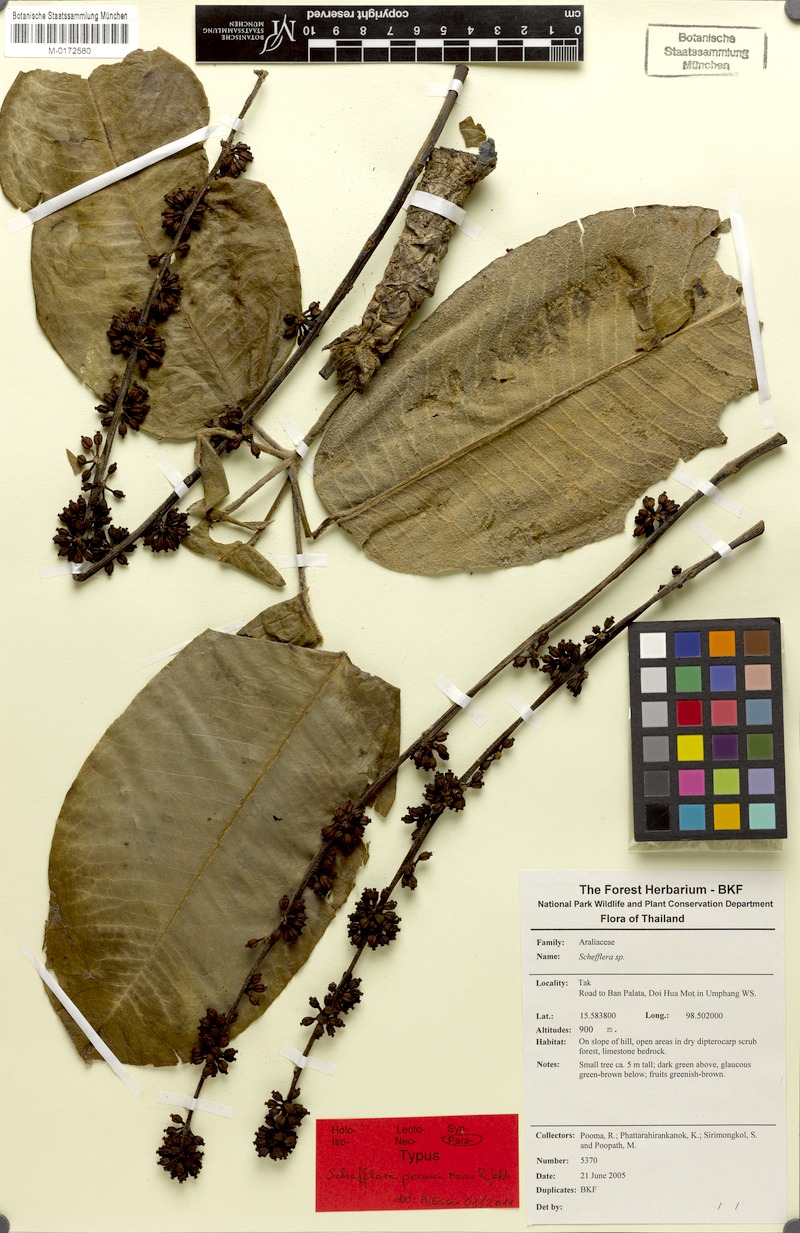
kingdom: Plantae
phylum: Tracheophyta
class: Magnoliopsida
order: Apiales
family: Araliaceae
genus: Heptapleurum
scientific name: Heptapleurum poomae
